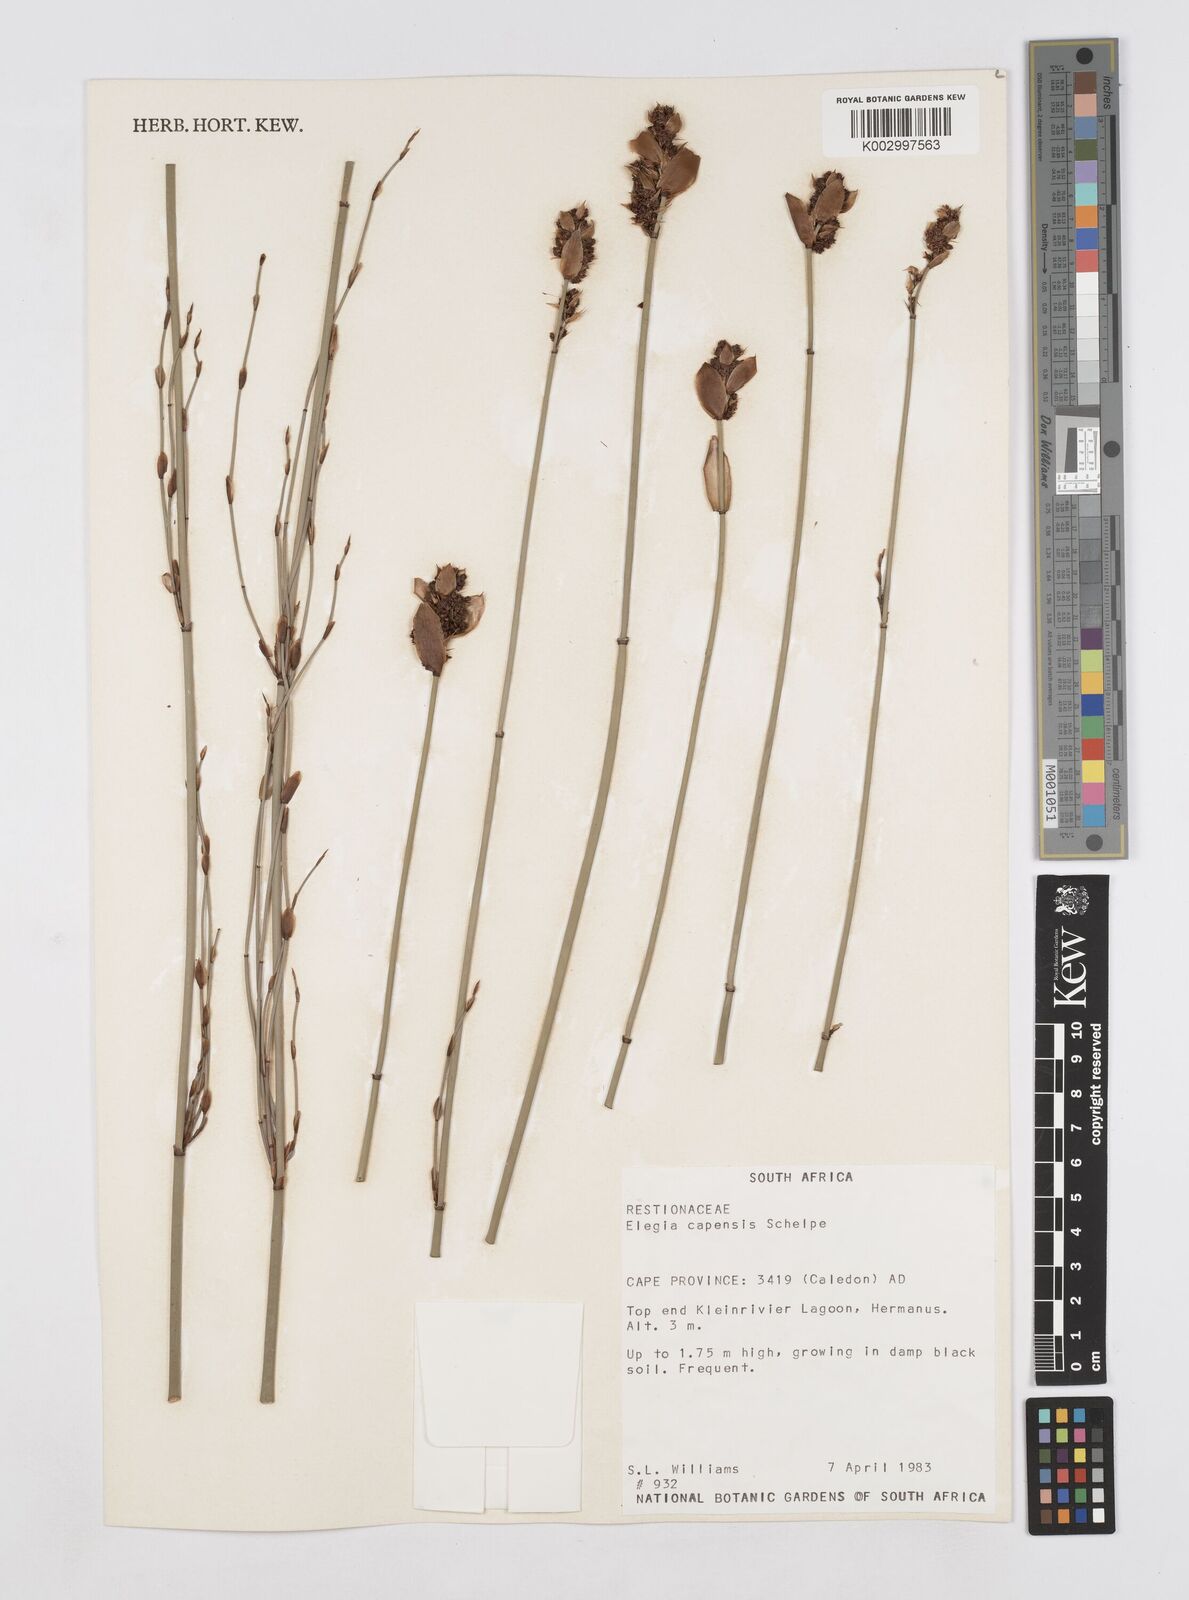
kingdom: Plantae
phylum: Tracheophyta
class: Liliopsida
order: Poales
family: Restionaceae
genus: Elegia
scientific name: Elegia capensis
